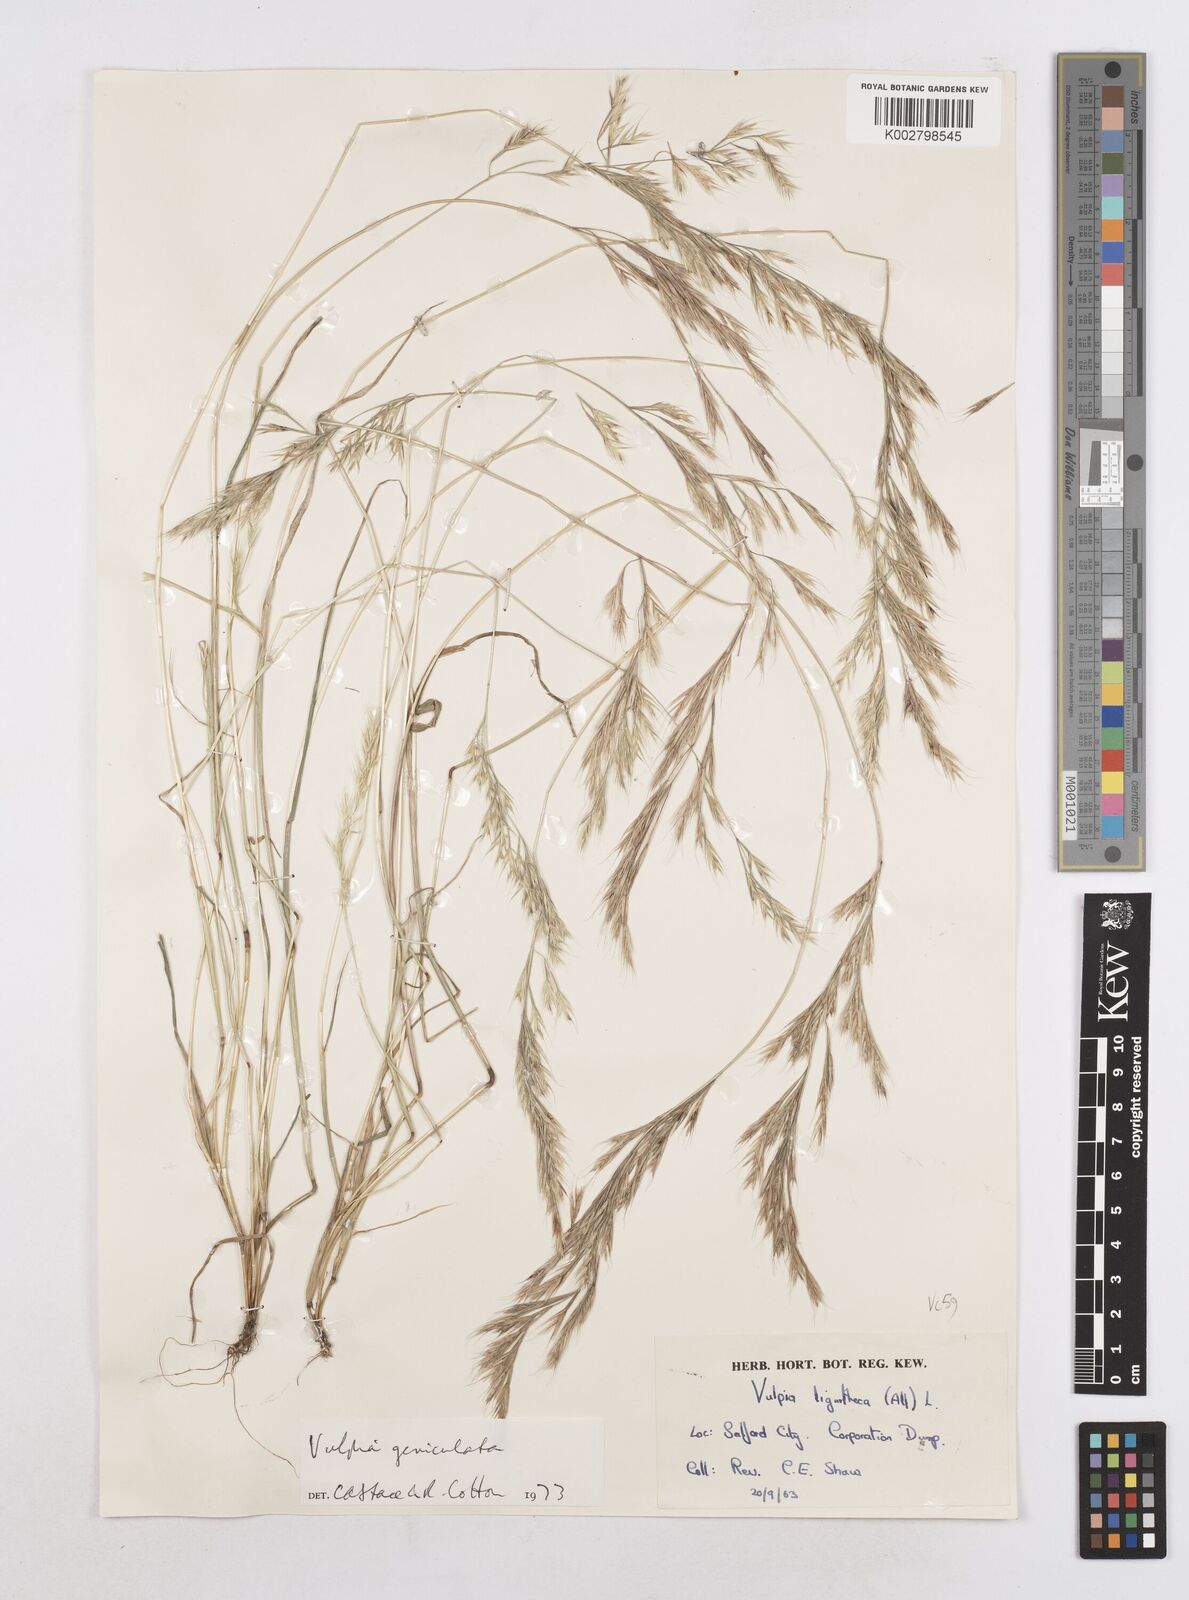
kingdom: Plantae
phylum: Tracheophyta
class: Liliopsida
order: Poales
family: Poaceae
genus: Festuca
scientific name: Festuca geniculata
